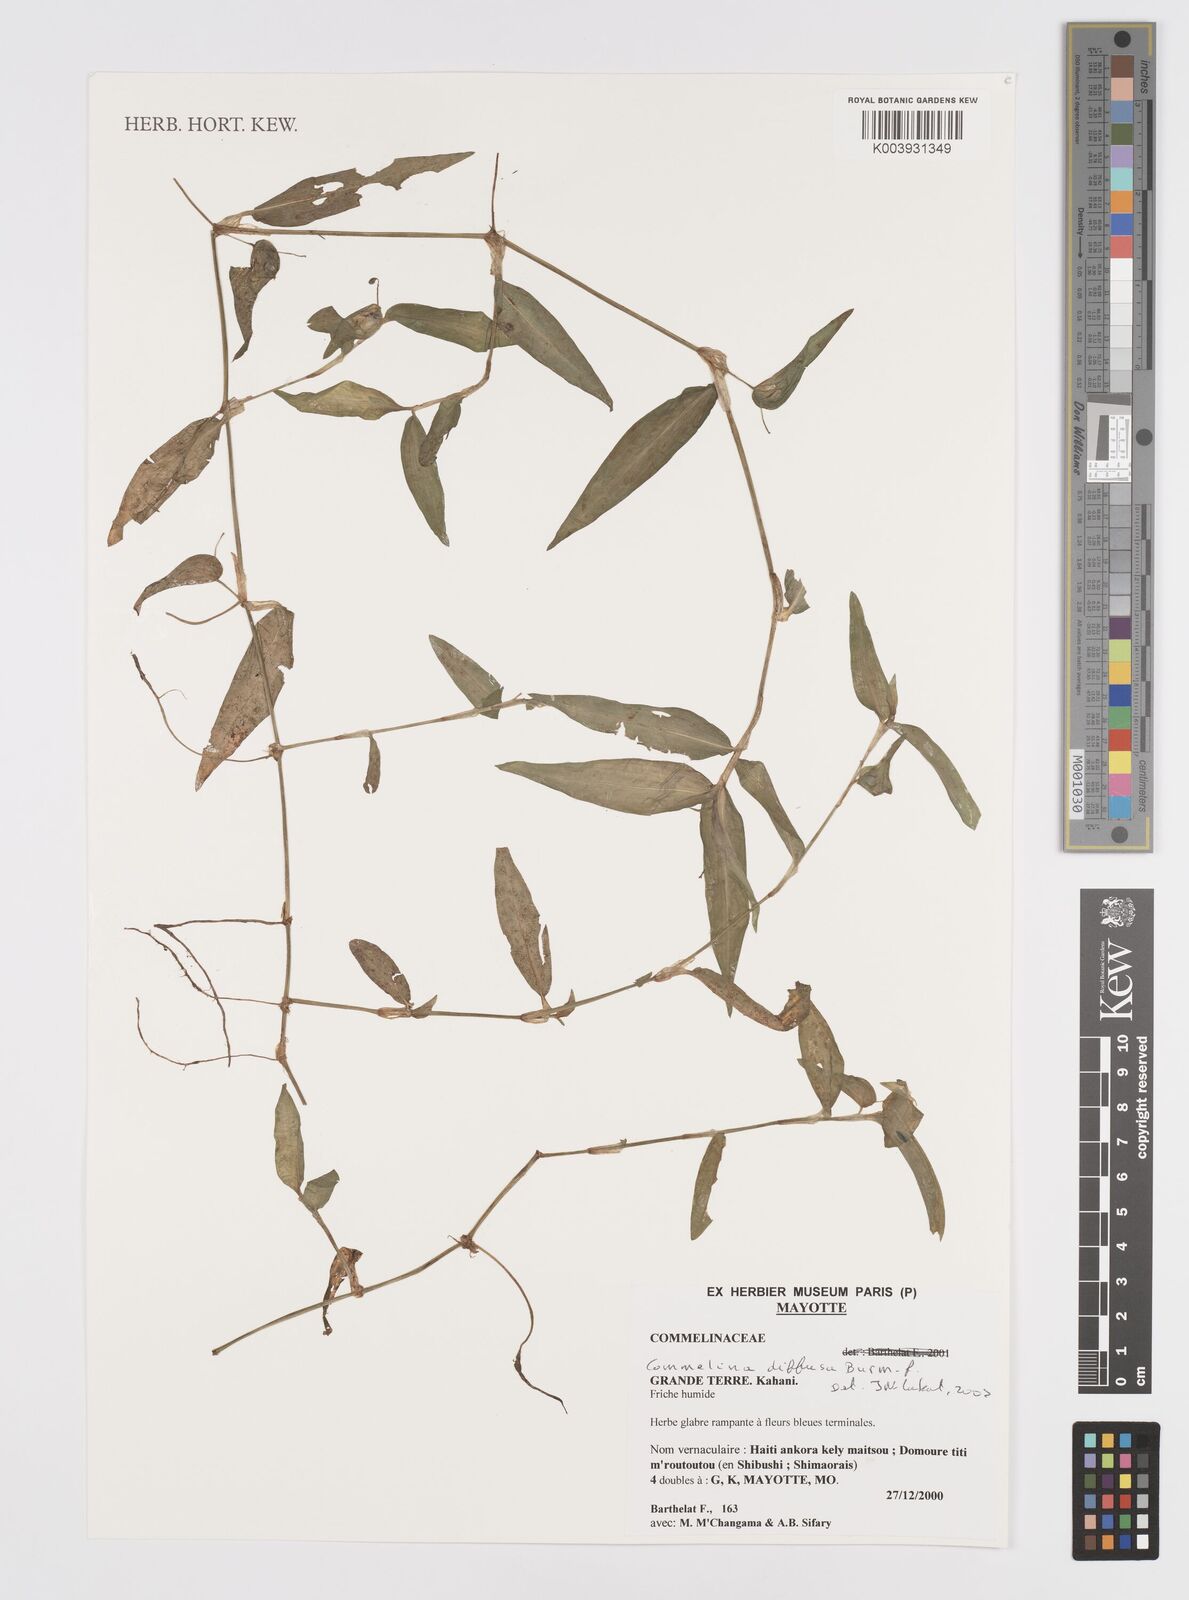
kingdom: Plantae
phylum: Tracheophyta
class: Liliopsida
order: Commelinales
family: Commelinaceae
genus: Murdannia
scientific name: Murdannia nudiflora
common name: Nakedstem dewflower
